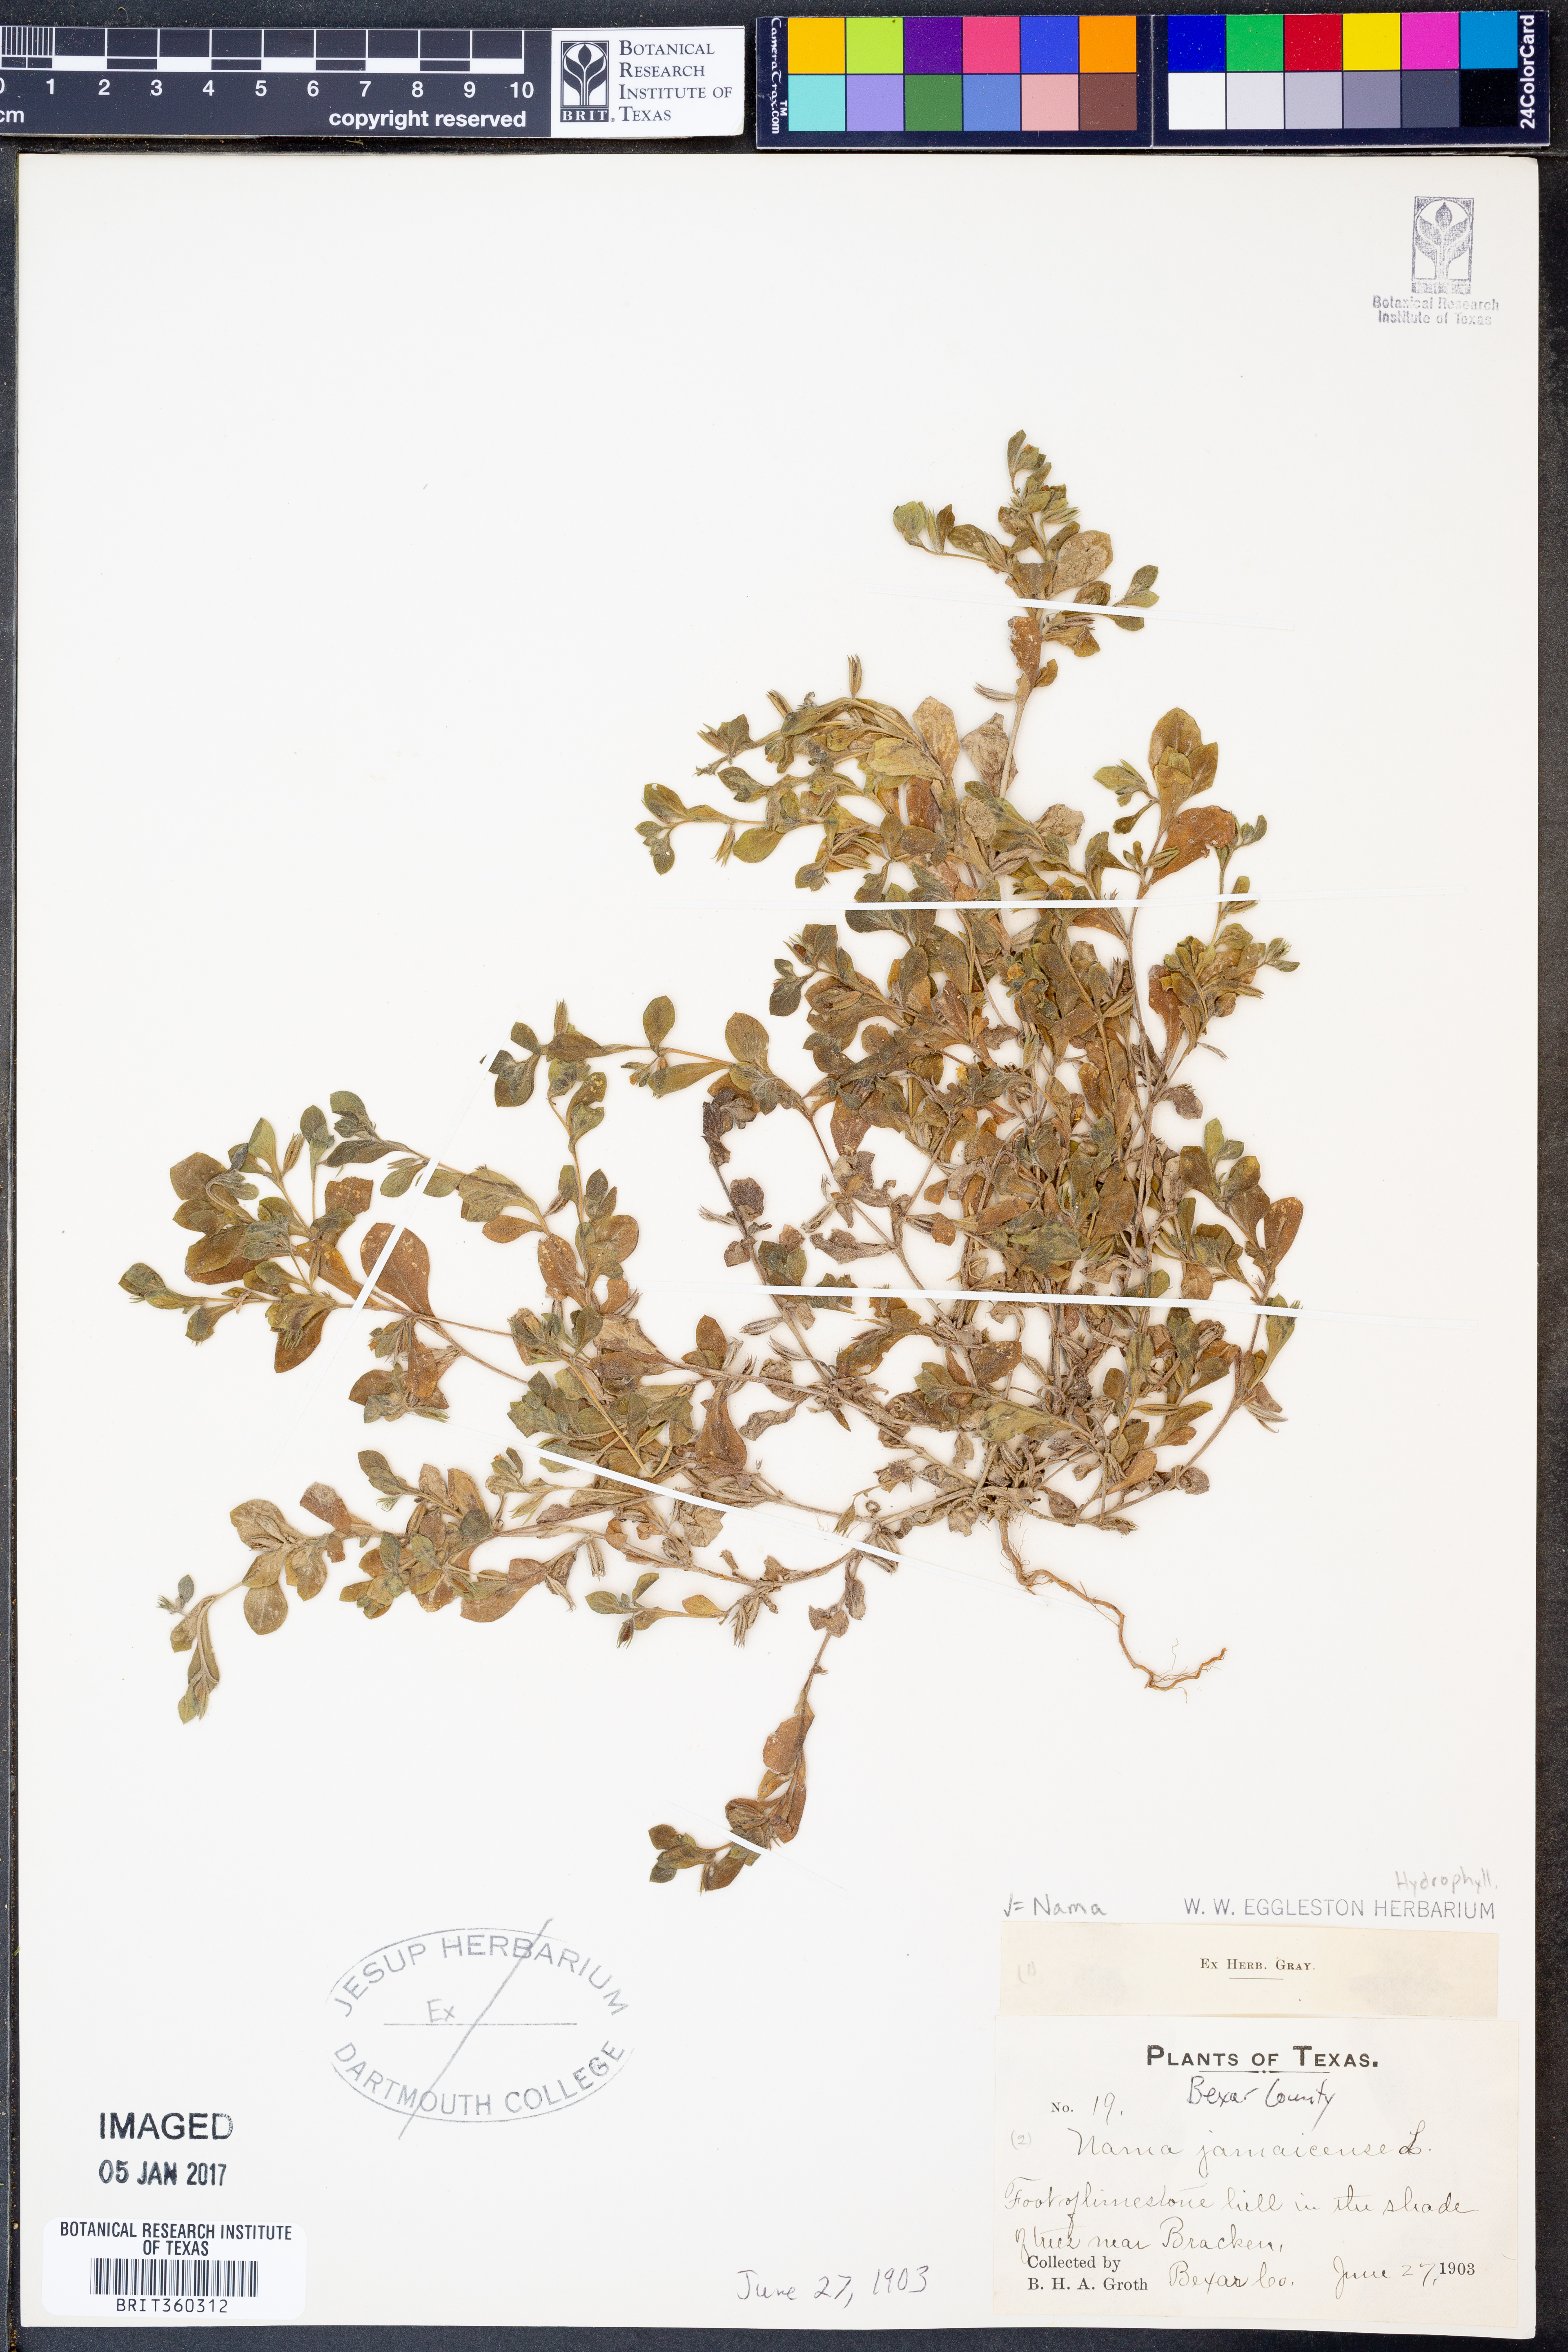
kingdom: Plantae
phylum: Tracheophyta
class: Magnoliopsida
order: Boraginales
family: Namaceae
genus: Nama
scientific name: Nama jamaicense
